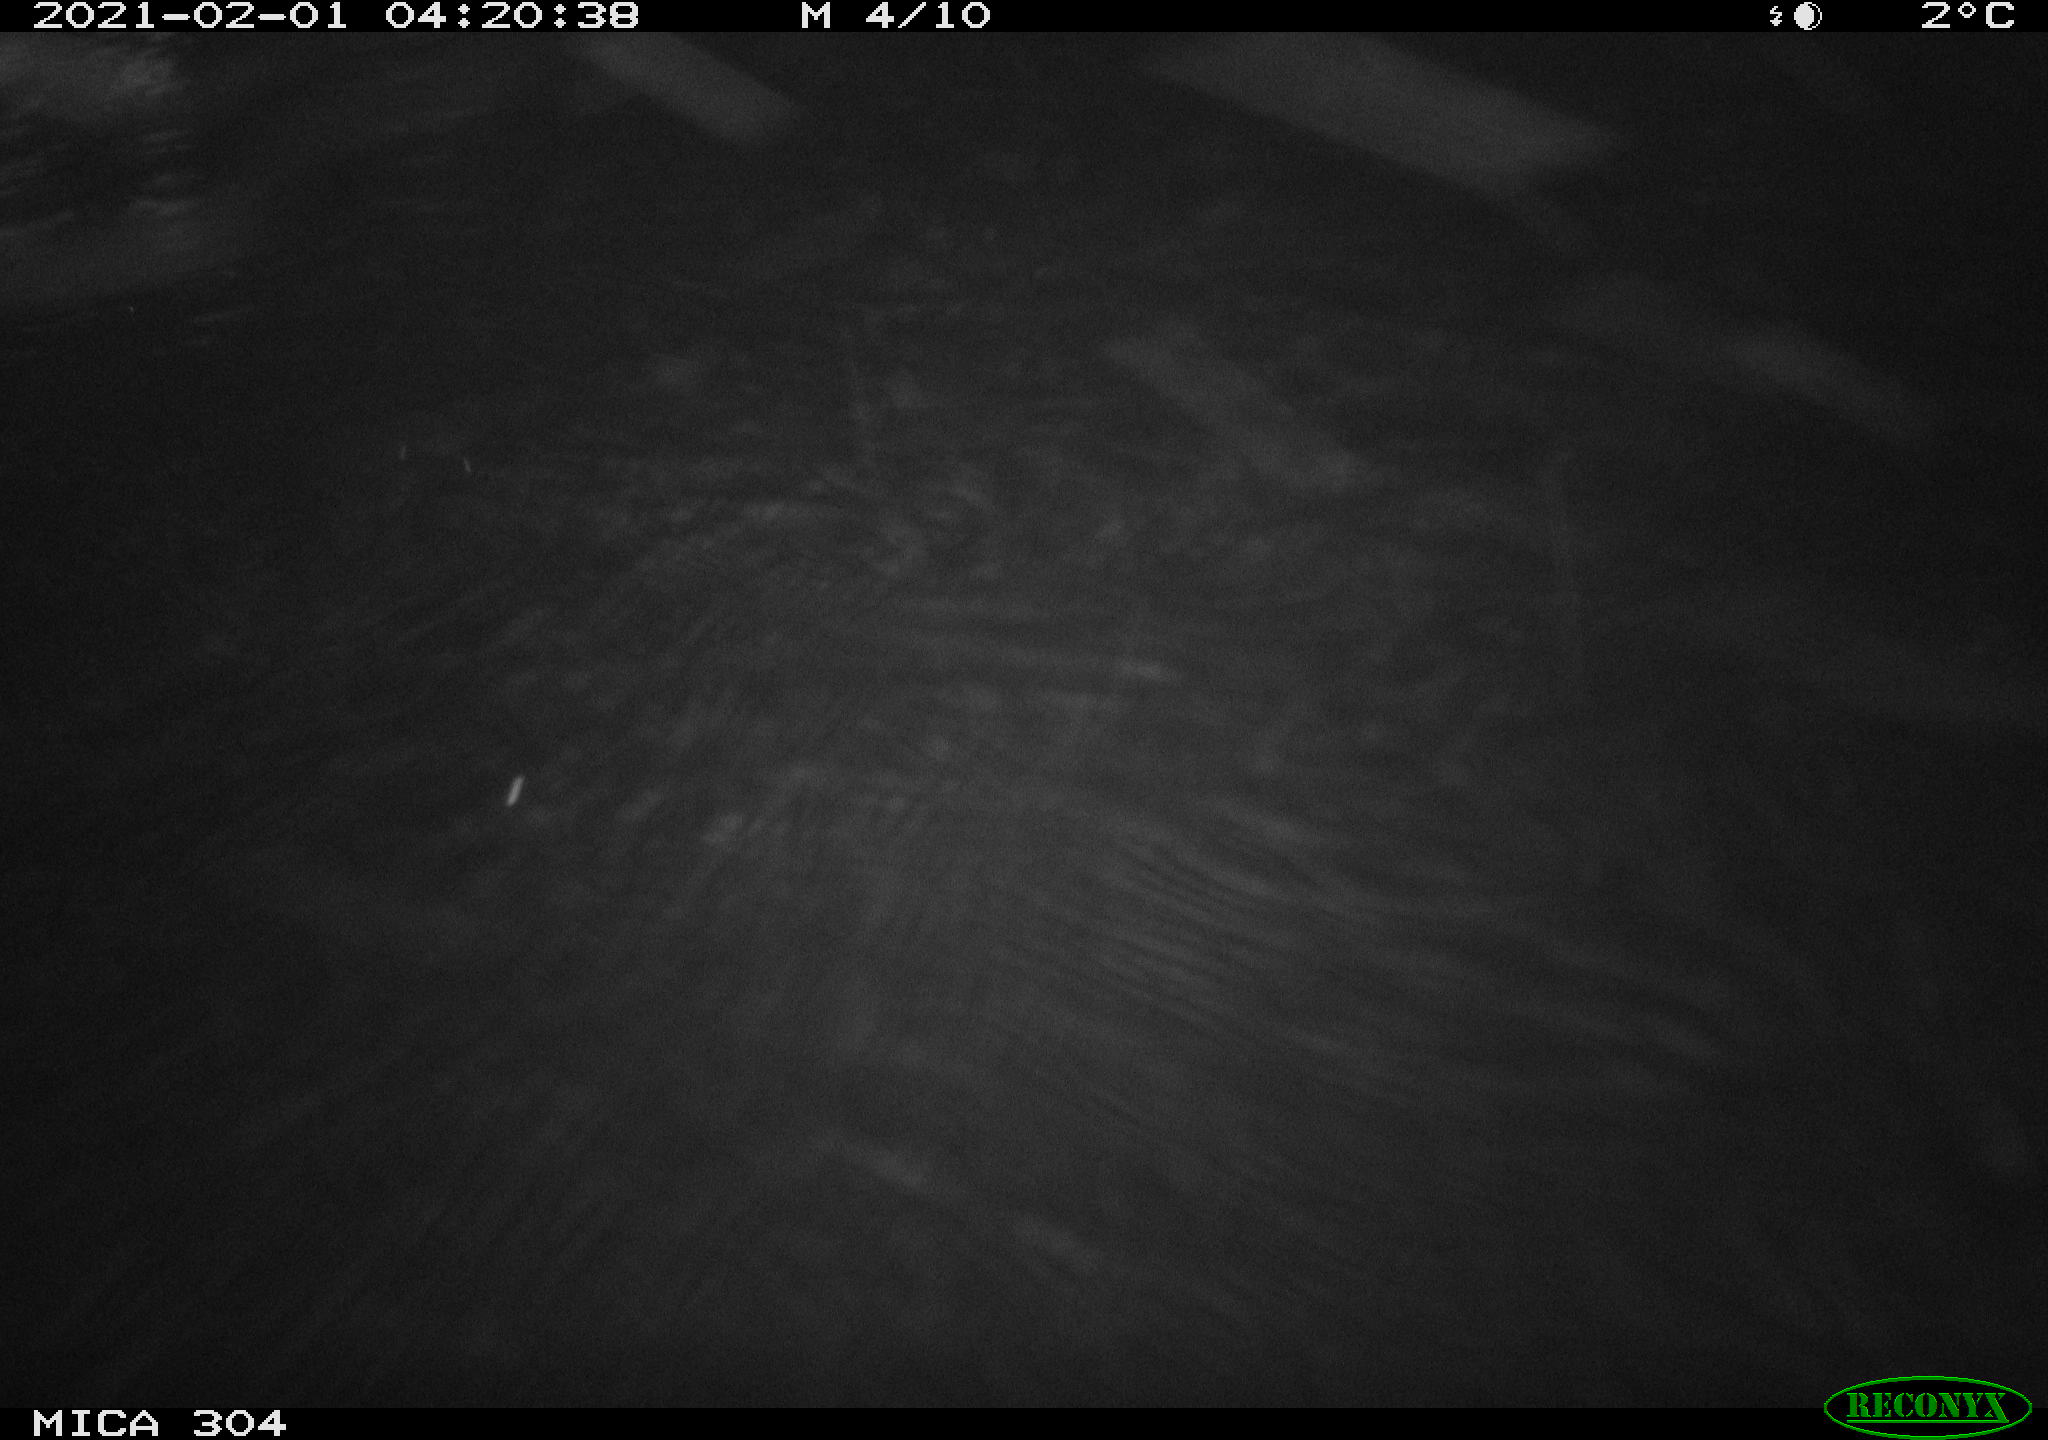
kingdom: Animalia
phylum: Chordata
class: Mammalia
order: Rodentia
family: Cricetidae
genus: Ondatra
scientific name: Ondatra zibethicus
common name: Muskrat
